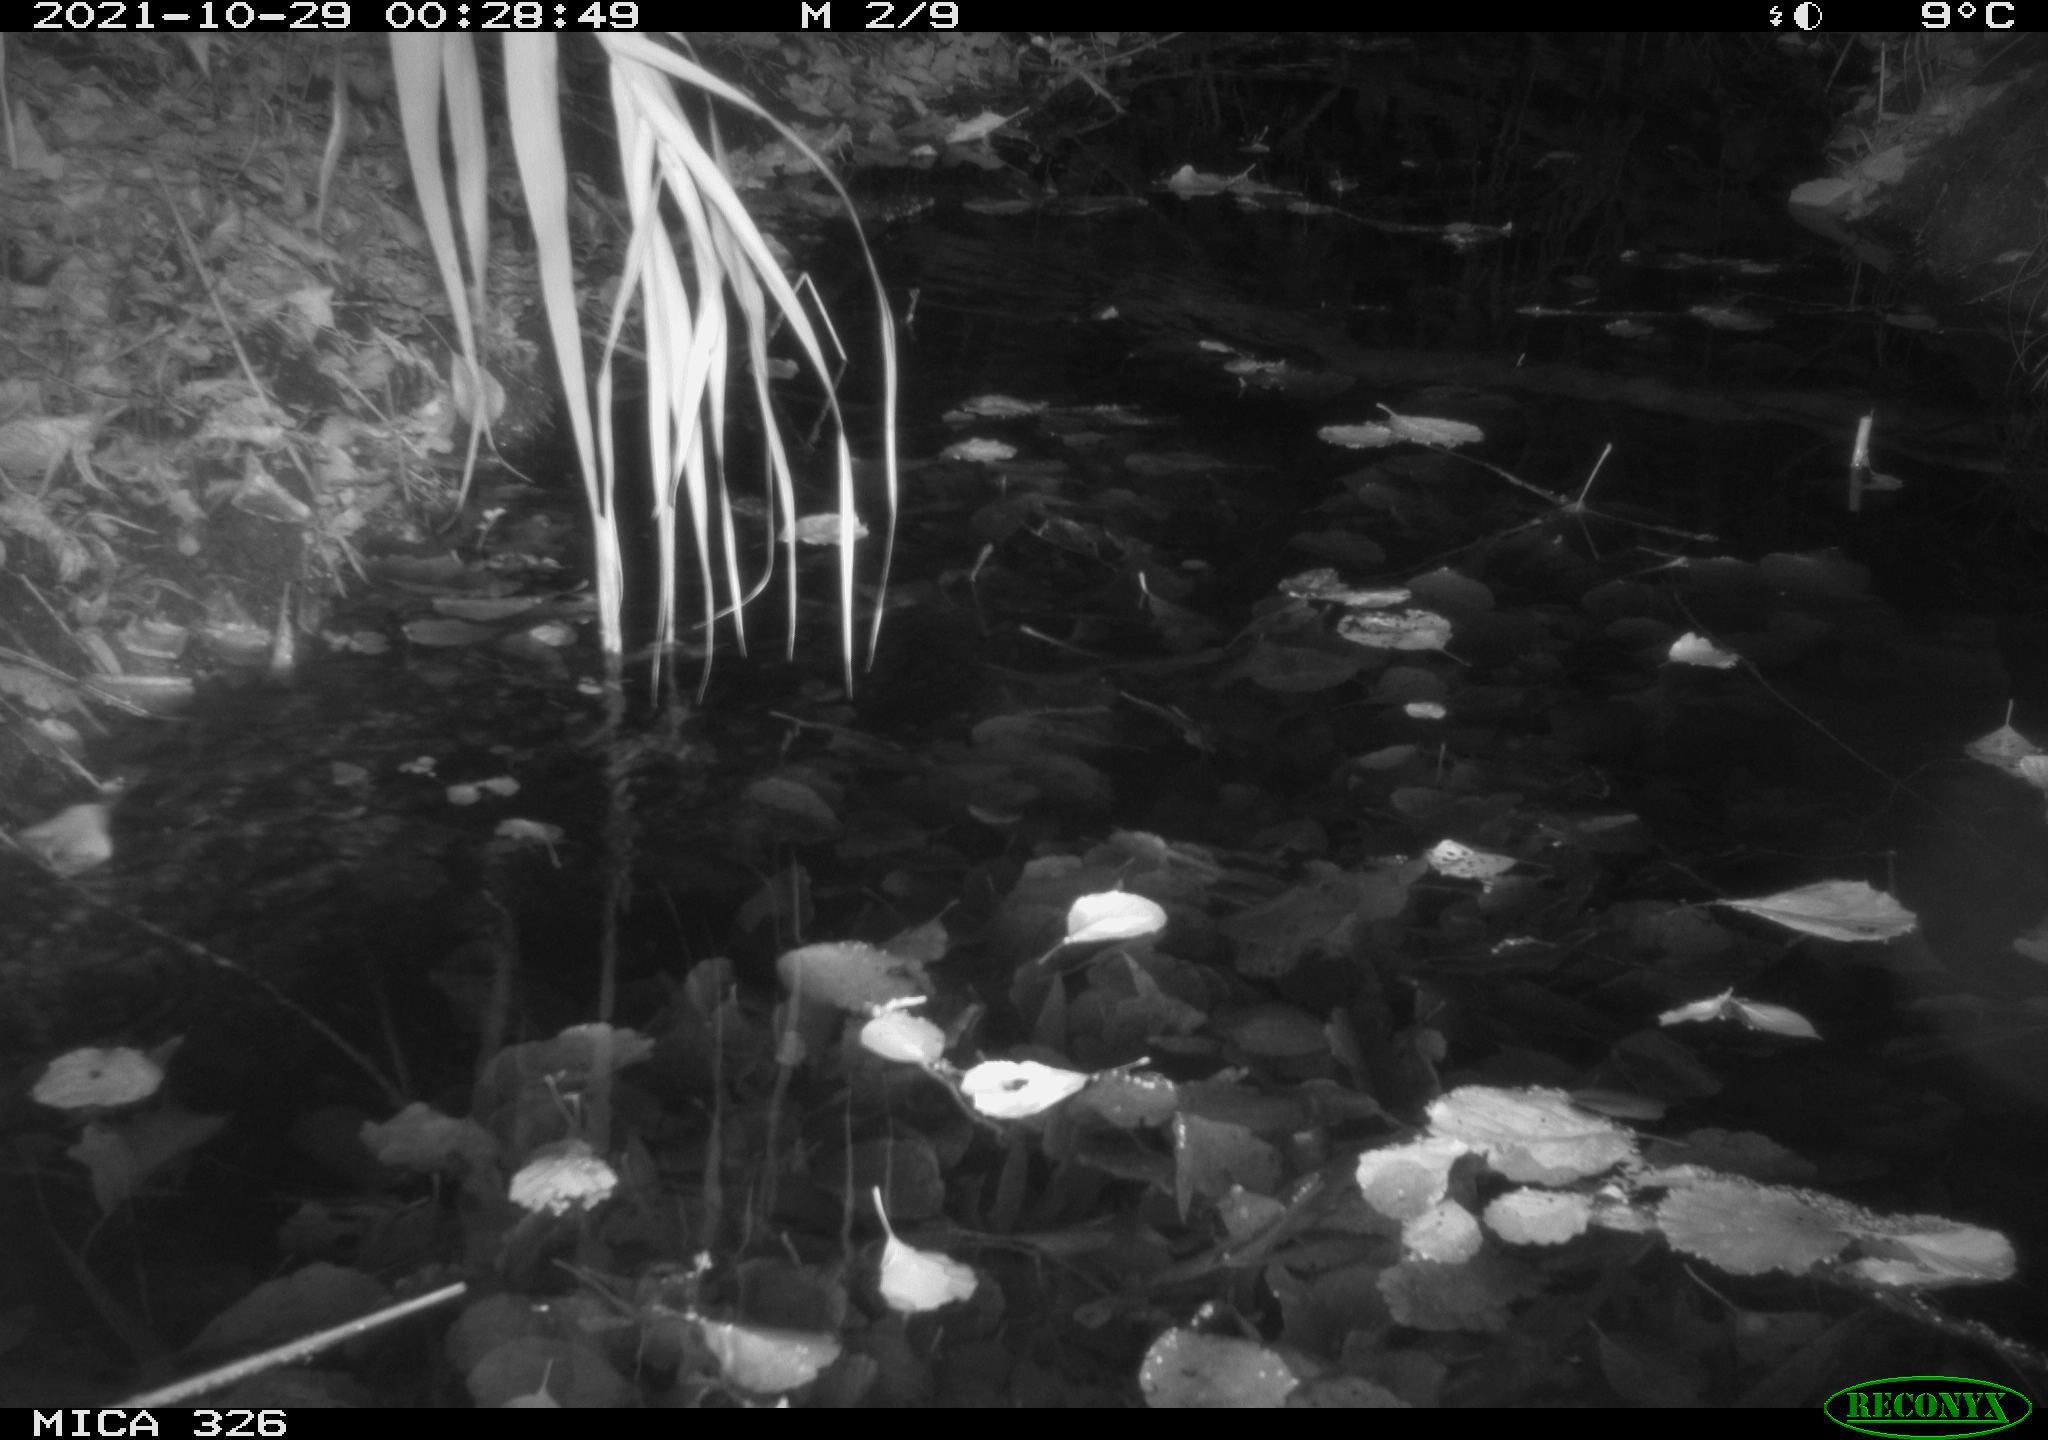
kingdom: Animalia
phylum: Chordata
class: Mammalia
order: Rodentia
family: Muridae
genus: Rattus
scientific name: Rattus norvegicus
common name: Brown rat
